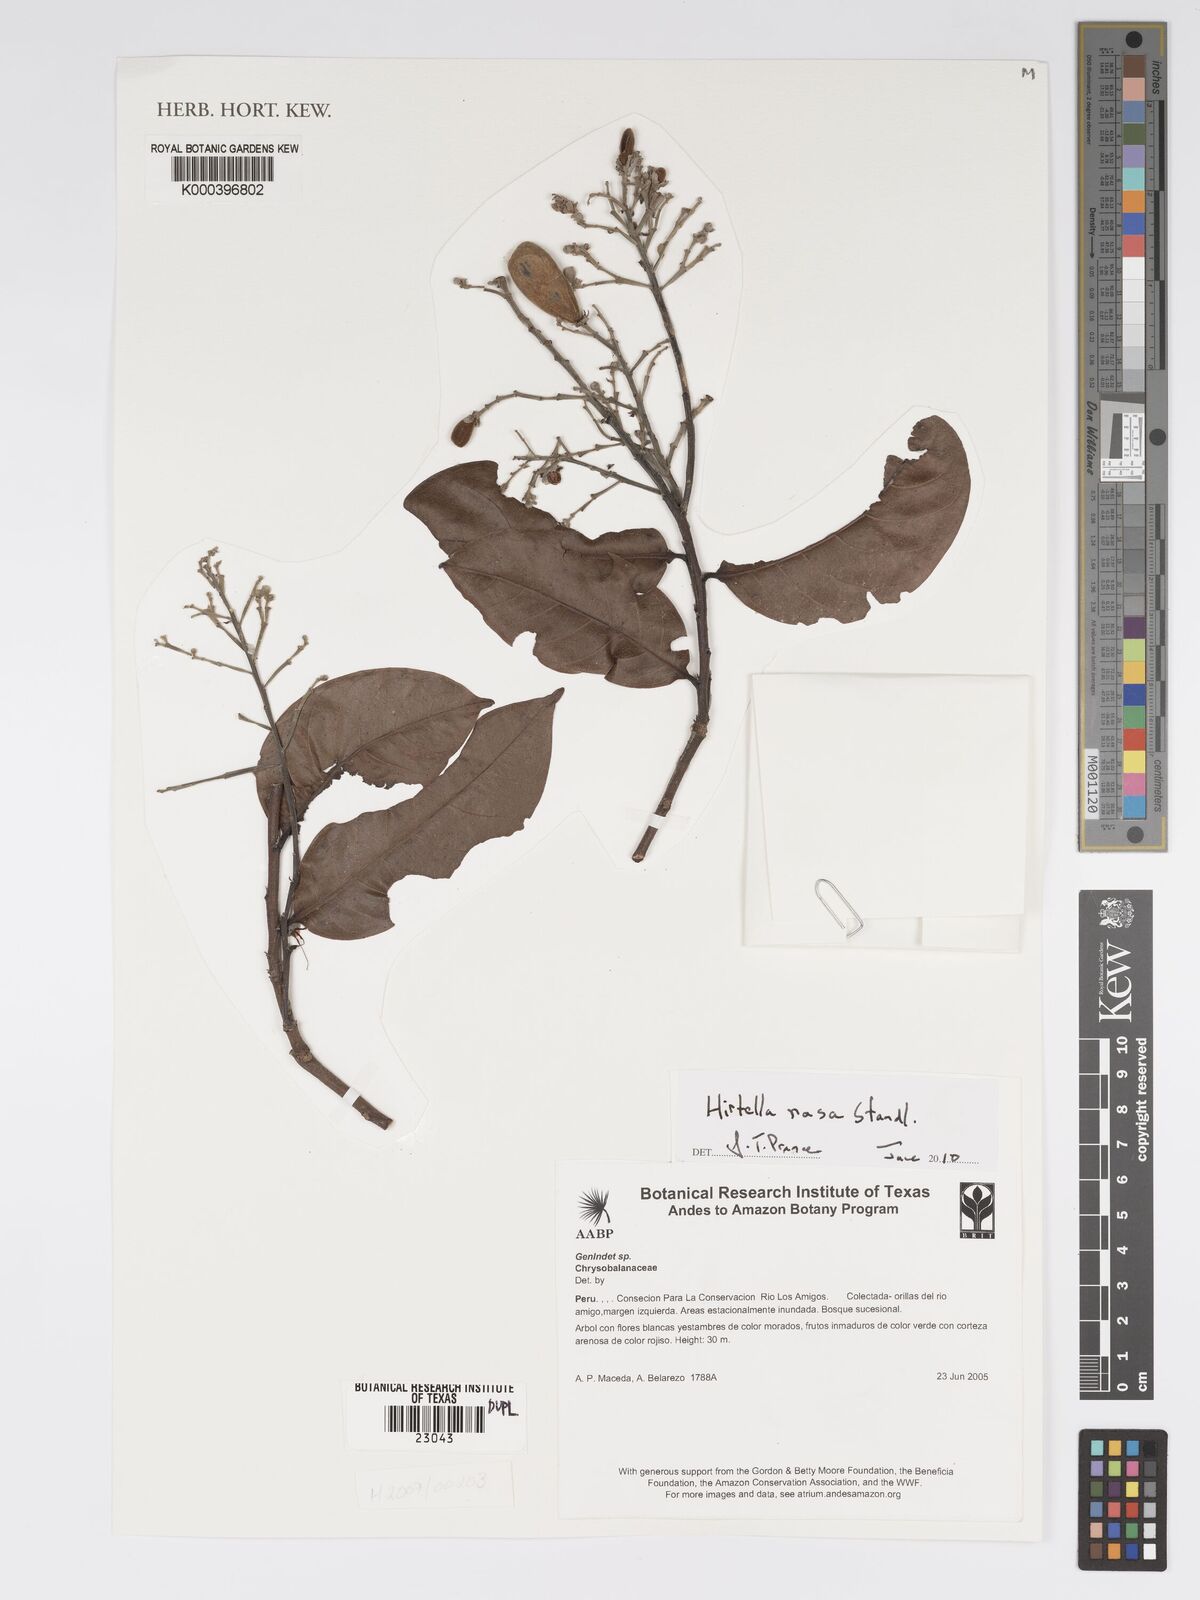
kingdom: Plantae
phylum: Tracheophyta
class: Magnoliopsida
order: Malpighiales
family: Chrysobalanaceae
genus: Hirtella
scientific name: Hirtella rasa
